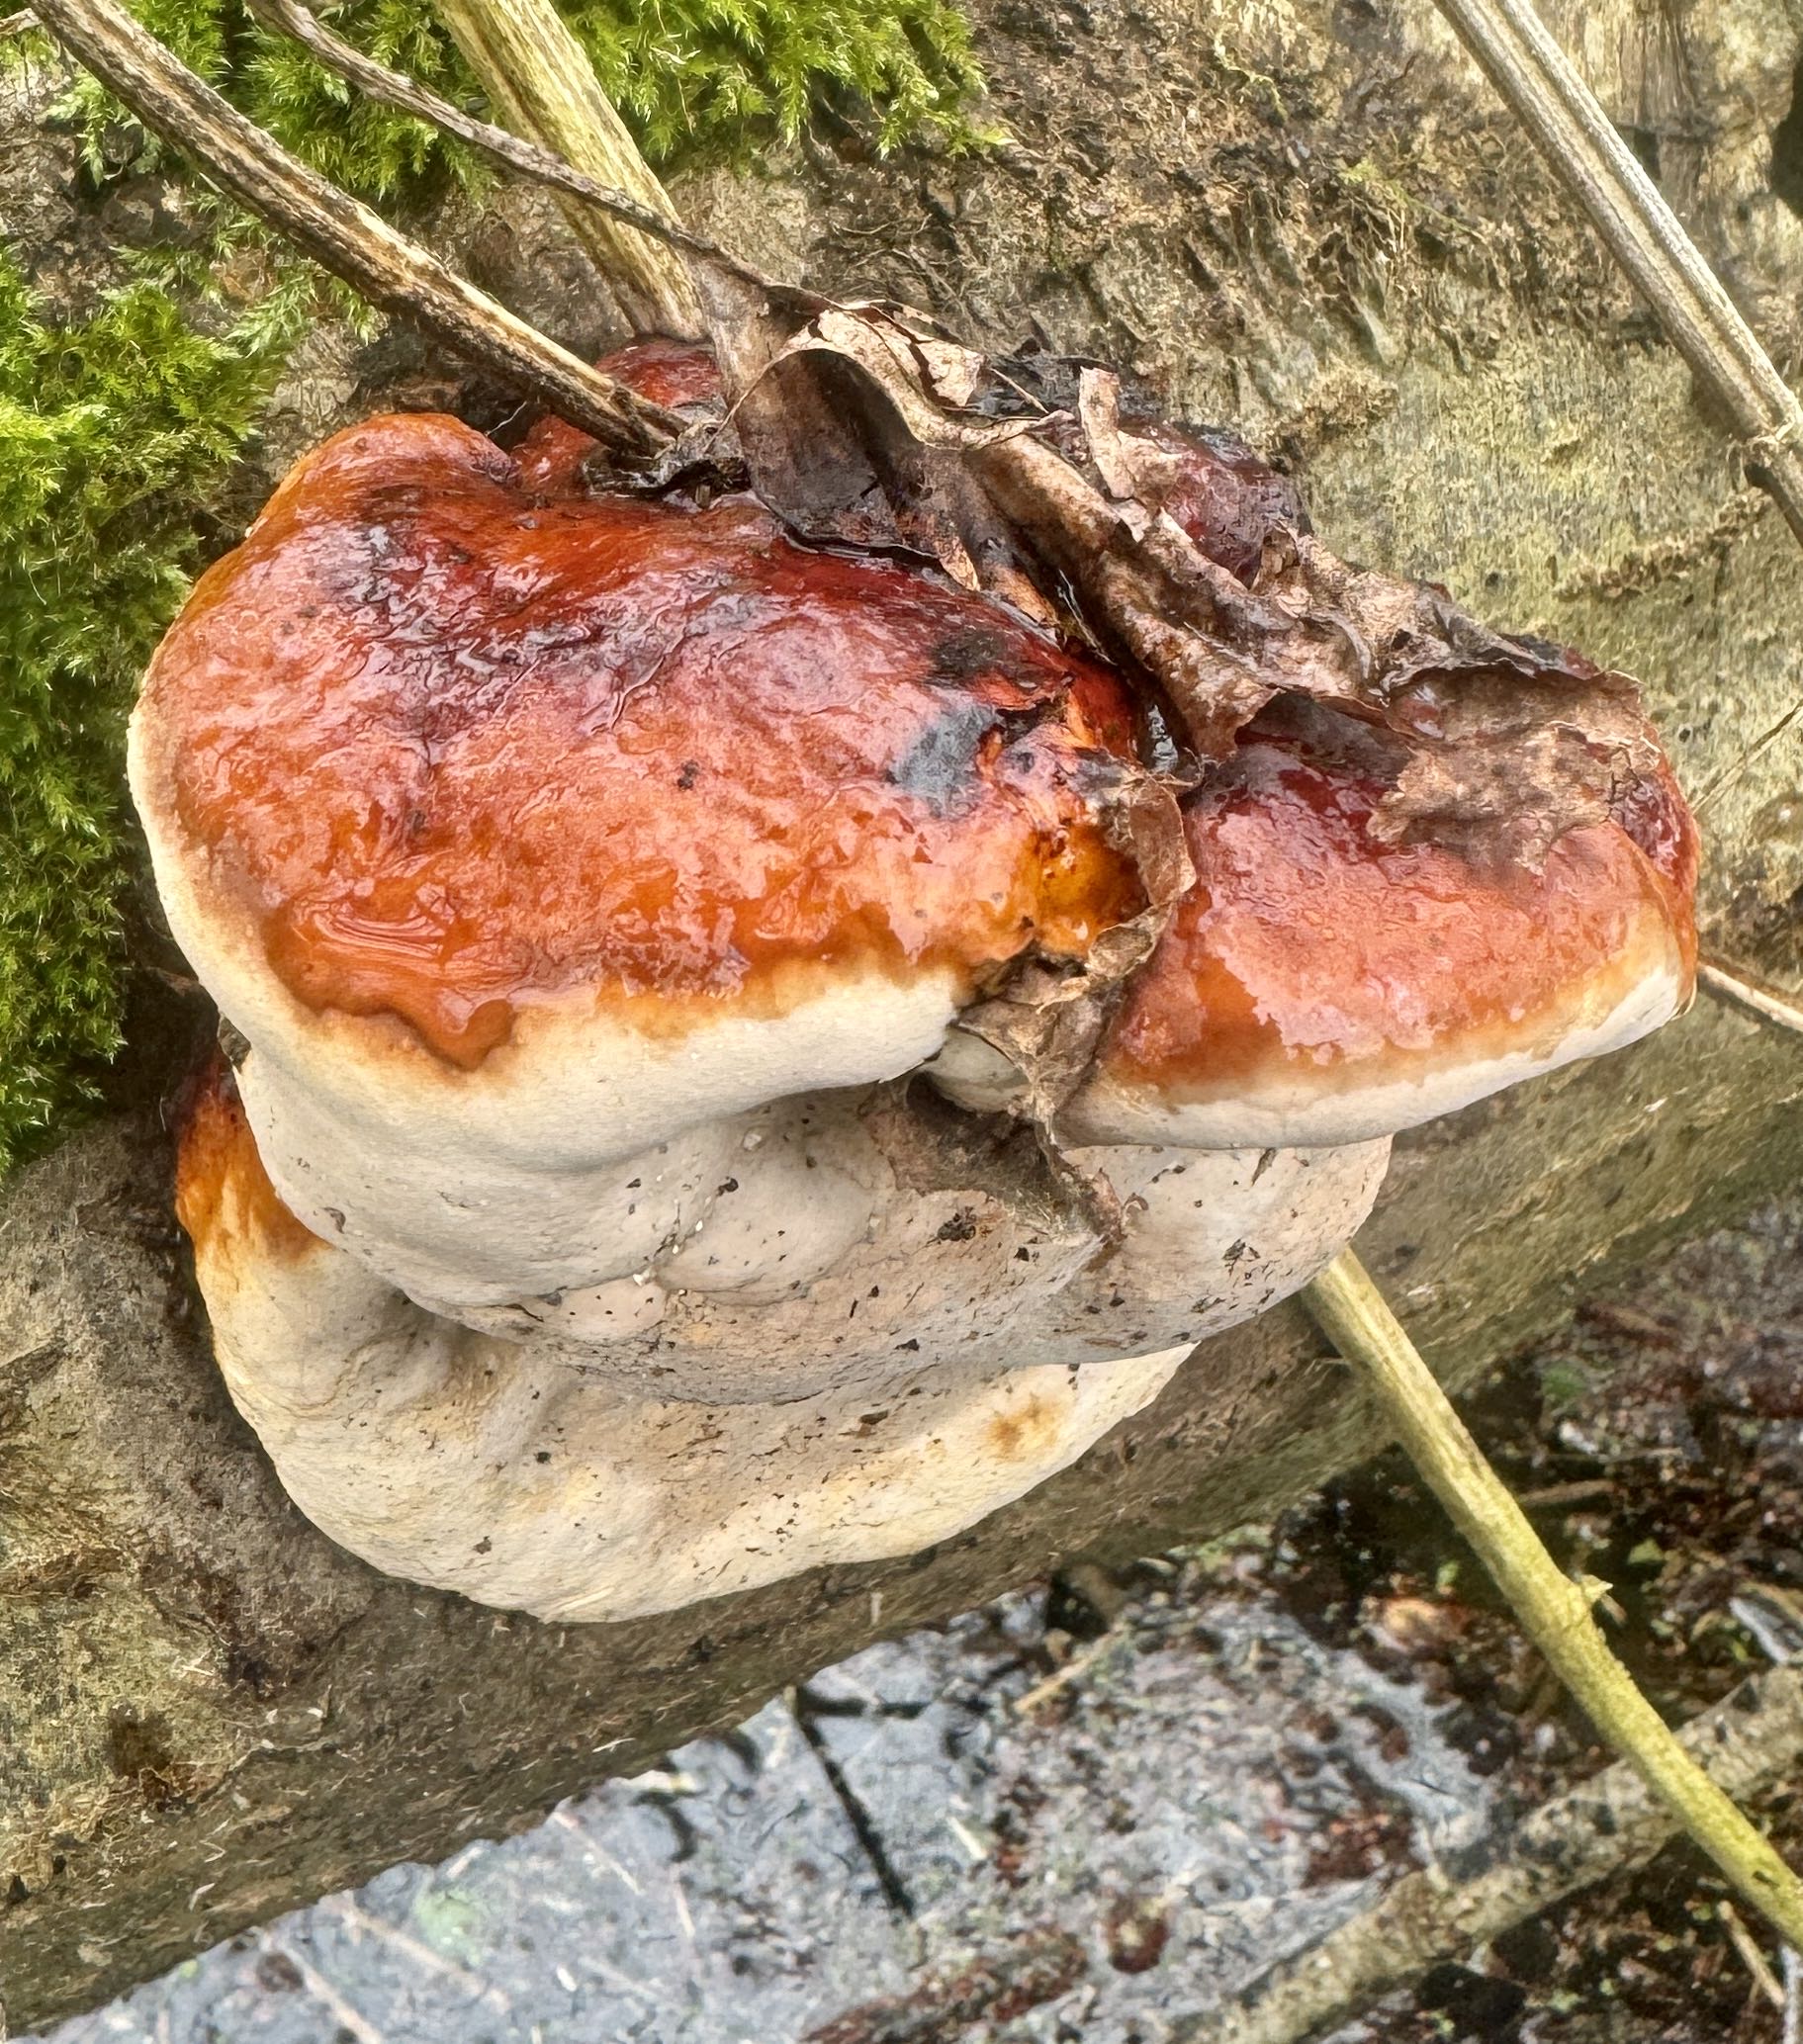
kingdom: Fungi
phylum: Basidiomycota
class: Agaricomycetes
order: Polyporales
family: Fomitopsidaceae
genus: Fomitopsis
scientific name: Fomitopsis pinicola
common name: randbæltet hovporesvamp
